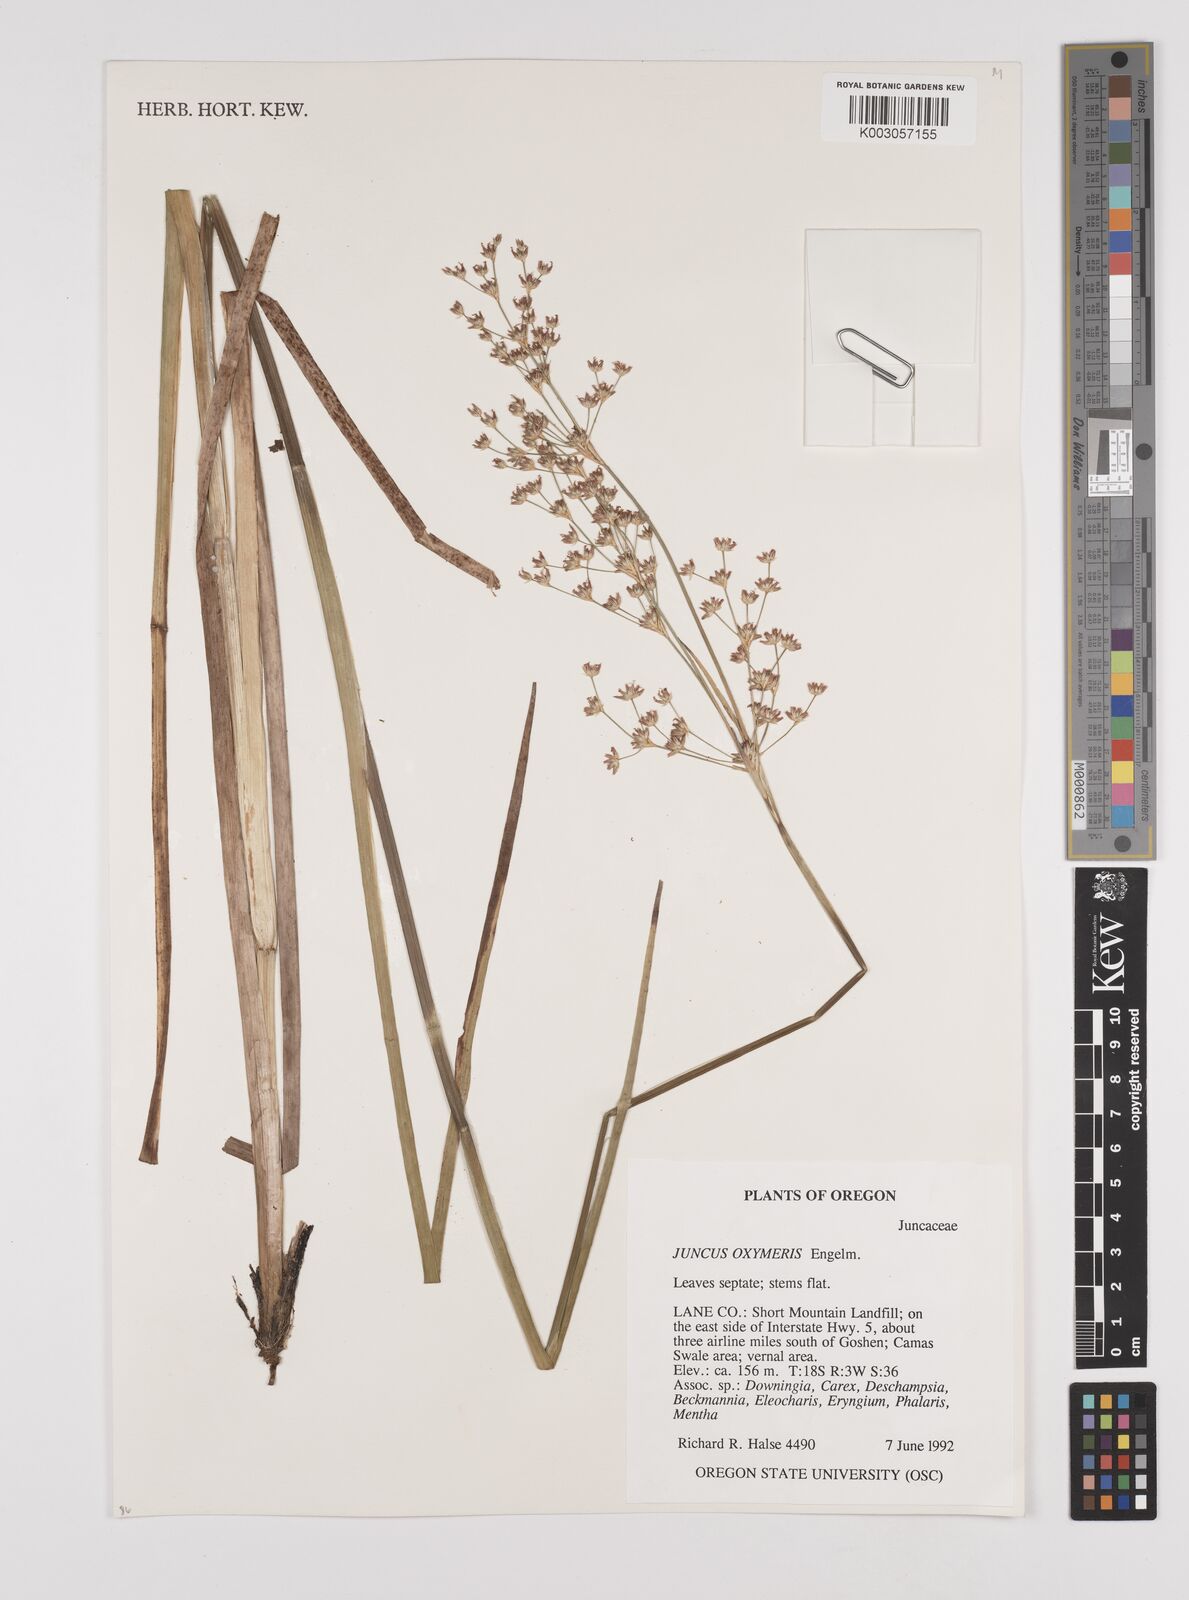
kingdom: Plantae
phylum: Tracheophyta
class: Liliopsida
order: Poales
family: Juncaceae
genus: Juncus
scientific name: Juncus oxymeris
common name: Pointed rush
